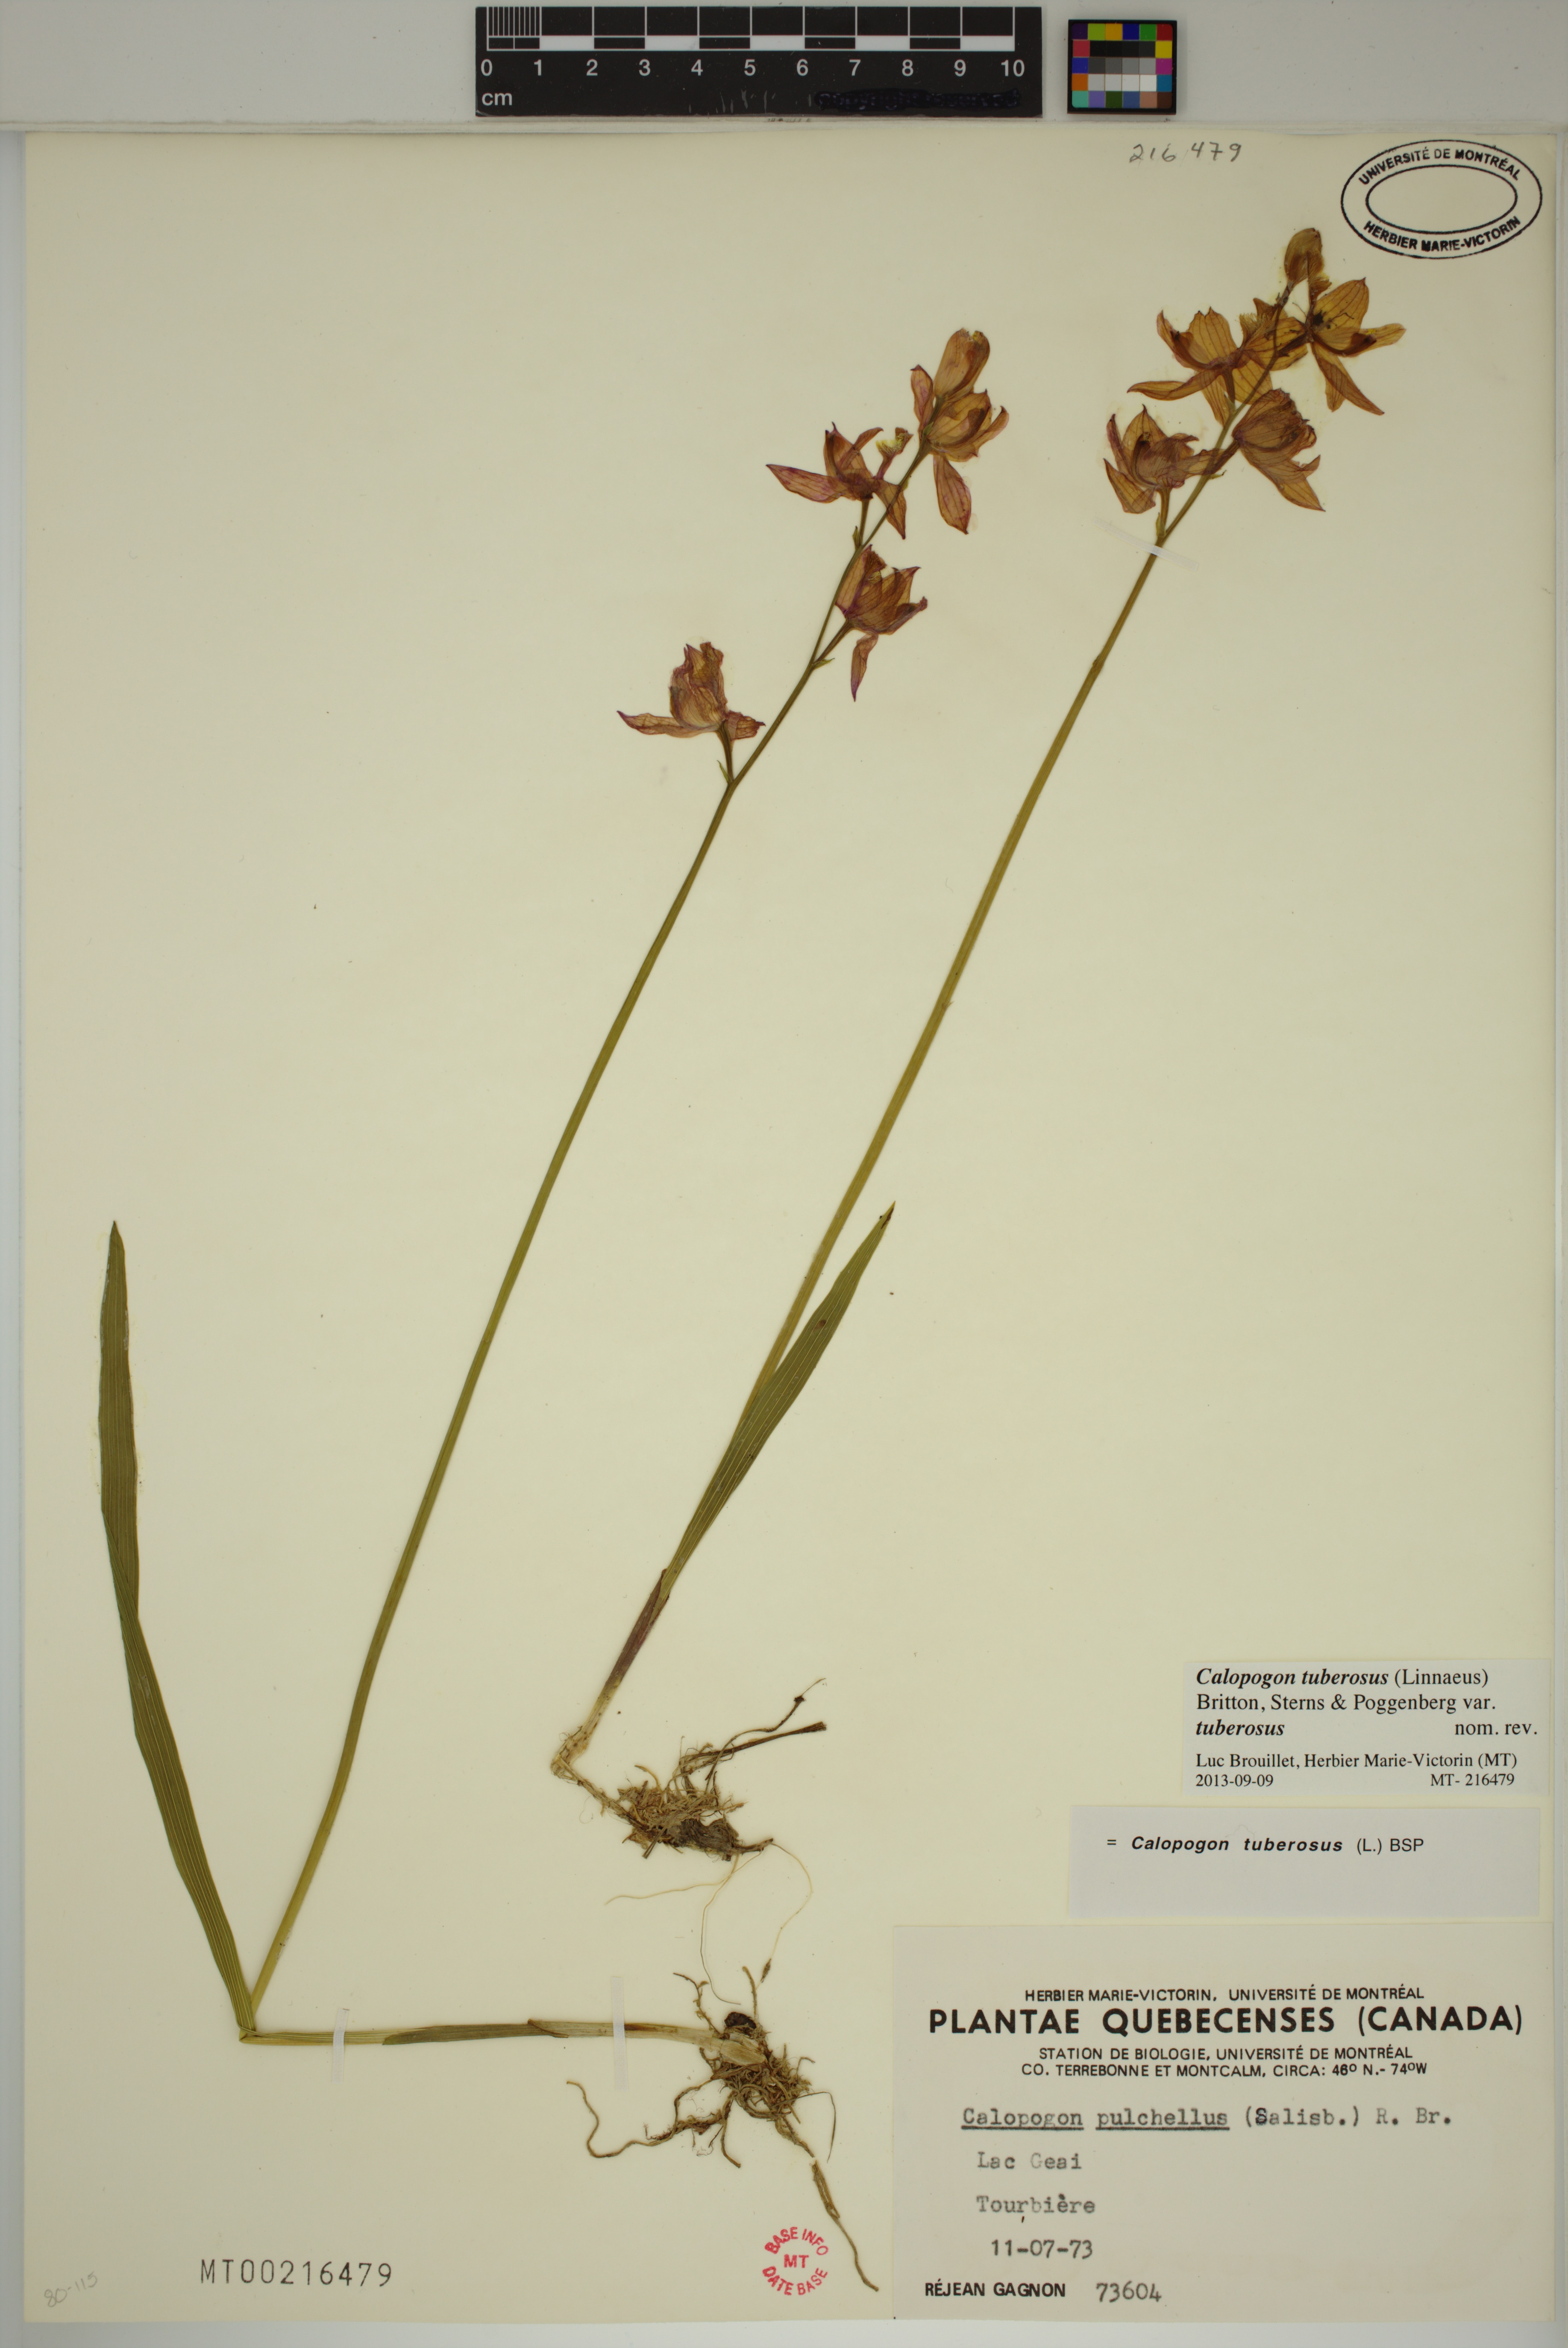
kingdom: Plantae
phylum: Tracheophyta
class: Liliopsida
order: Asparagales
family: Orchidaceae
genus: Calopogon
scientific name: Calopogon tuberosus
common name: Grass-pink
